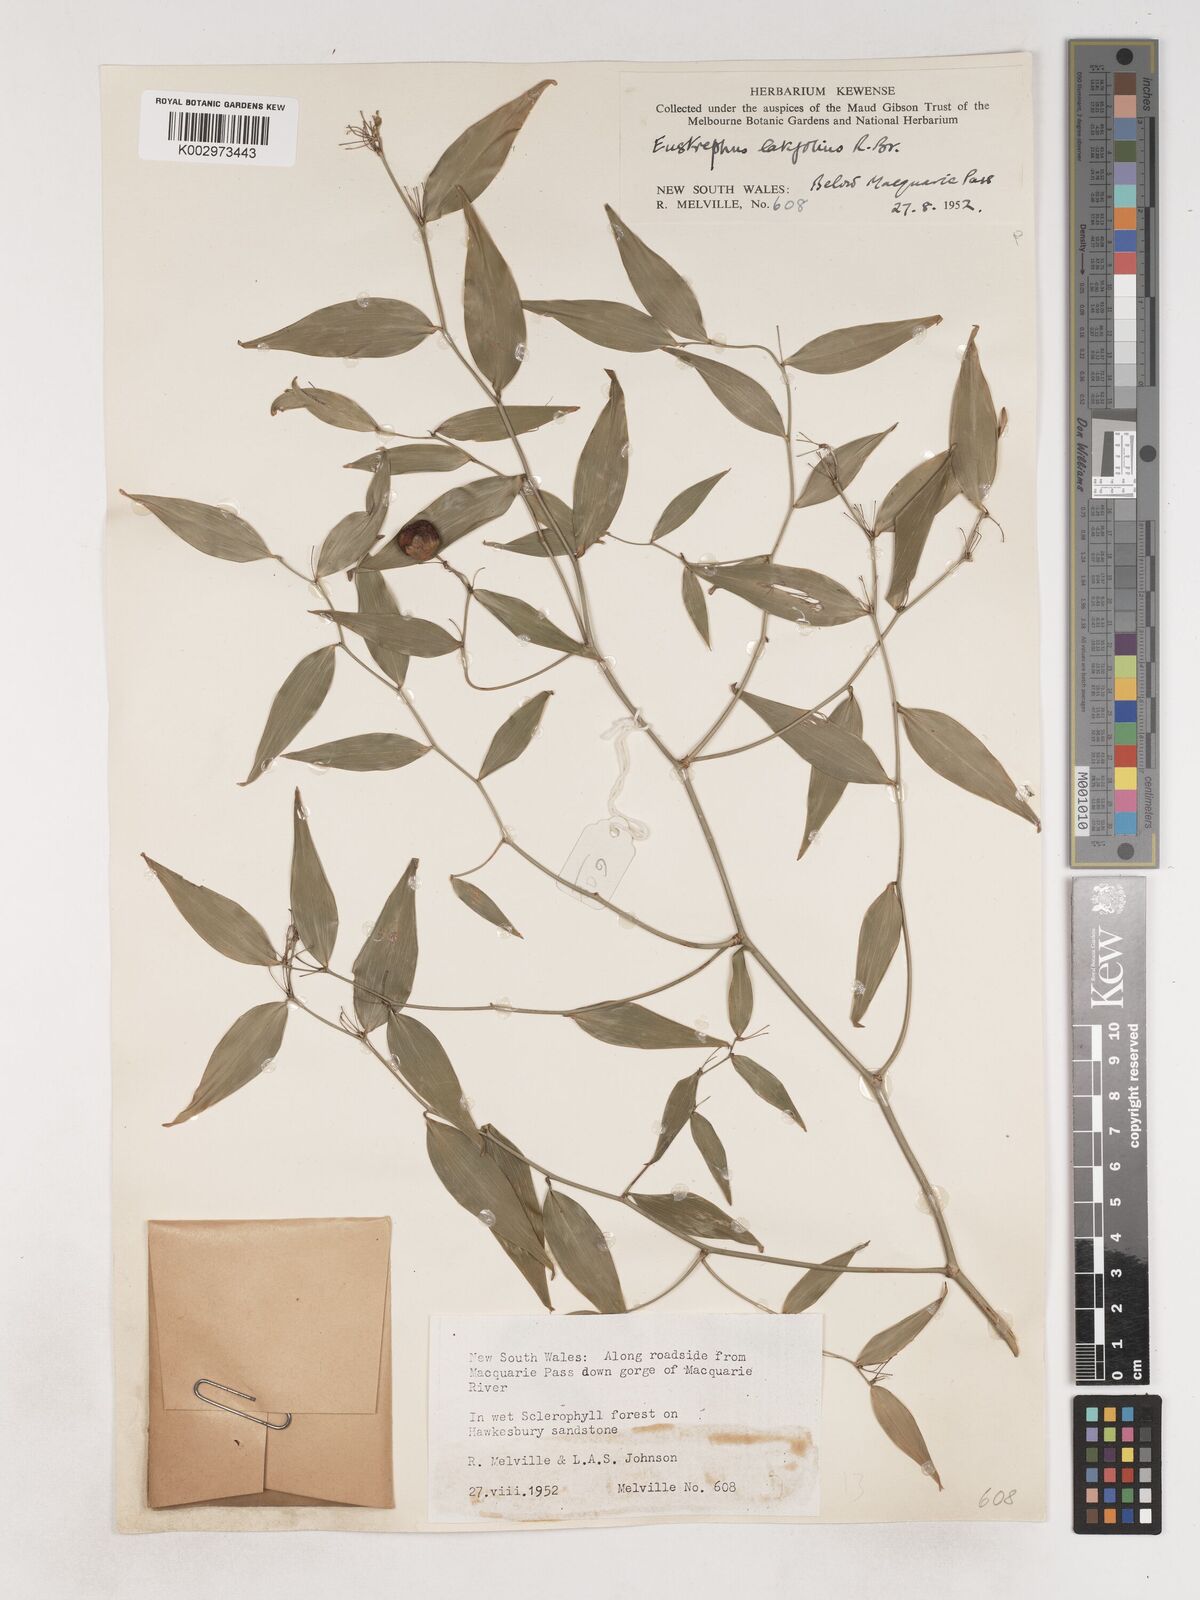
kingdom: Plantae
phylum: Tracheophyta
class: Liliopsida
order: Asparagales
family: Asparagaceae
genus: Eustrephus
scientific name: Eustrephus latifolius
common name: Orangevine
